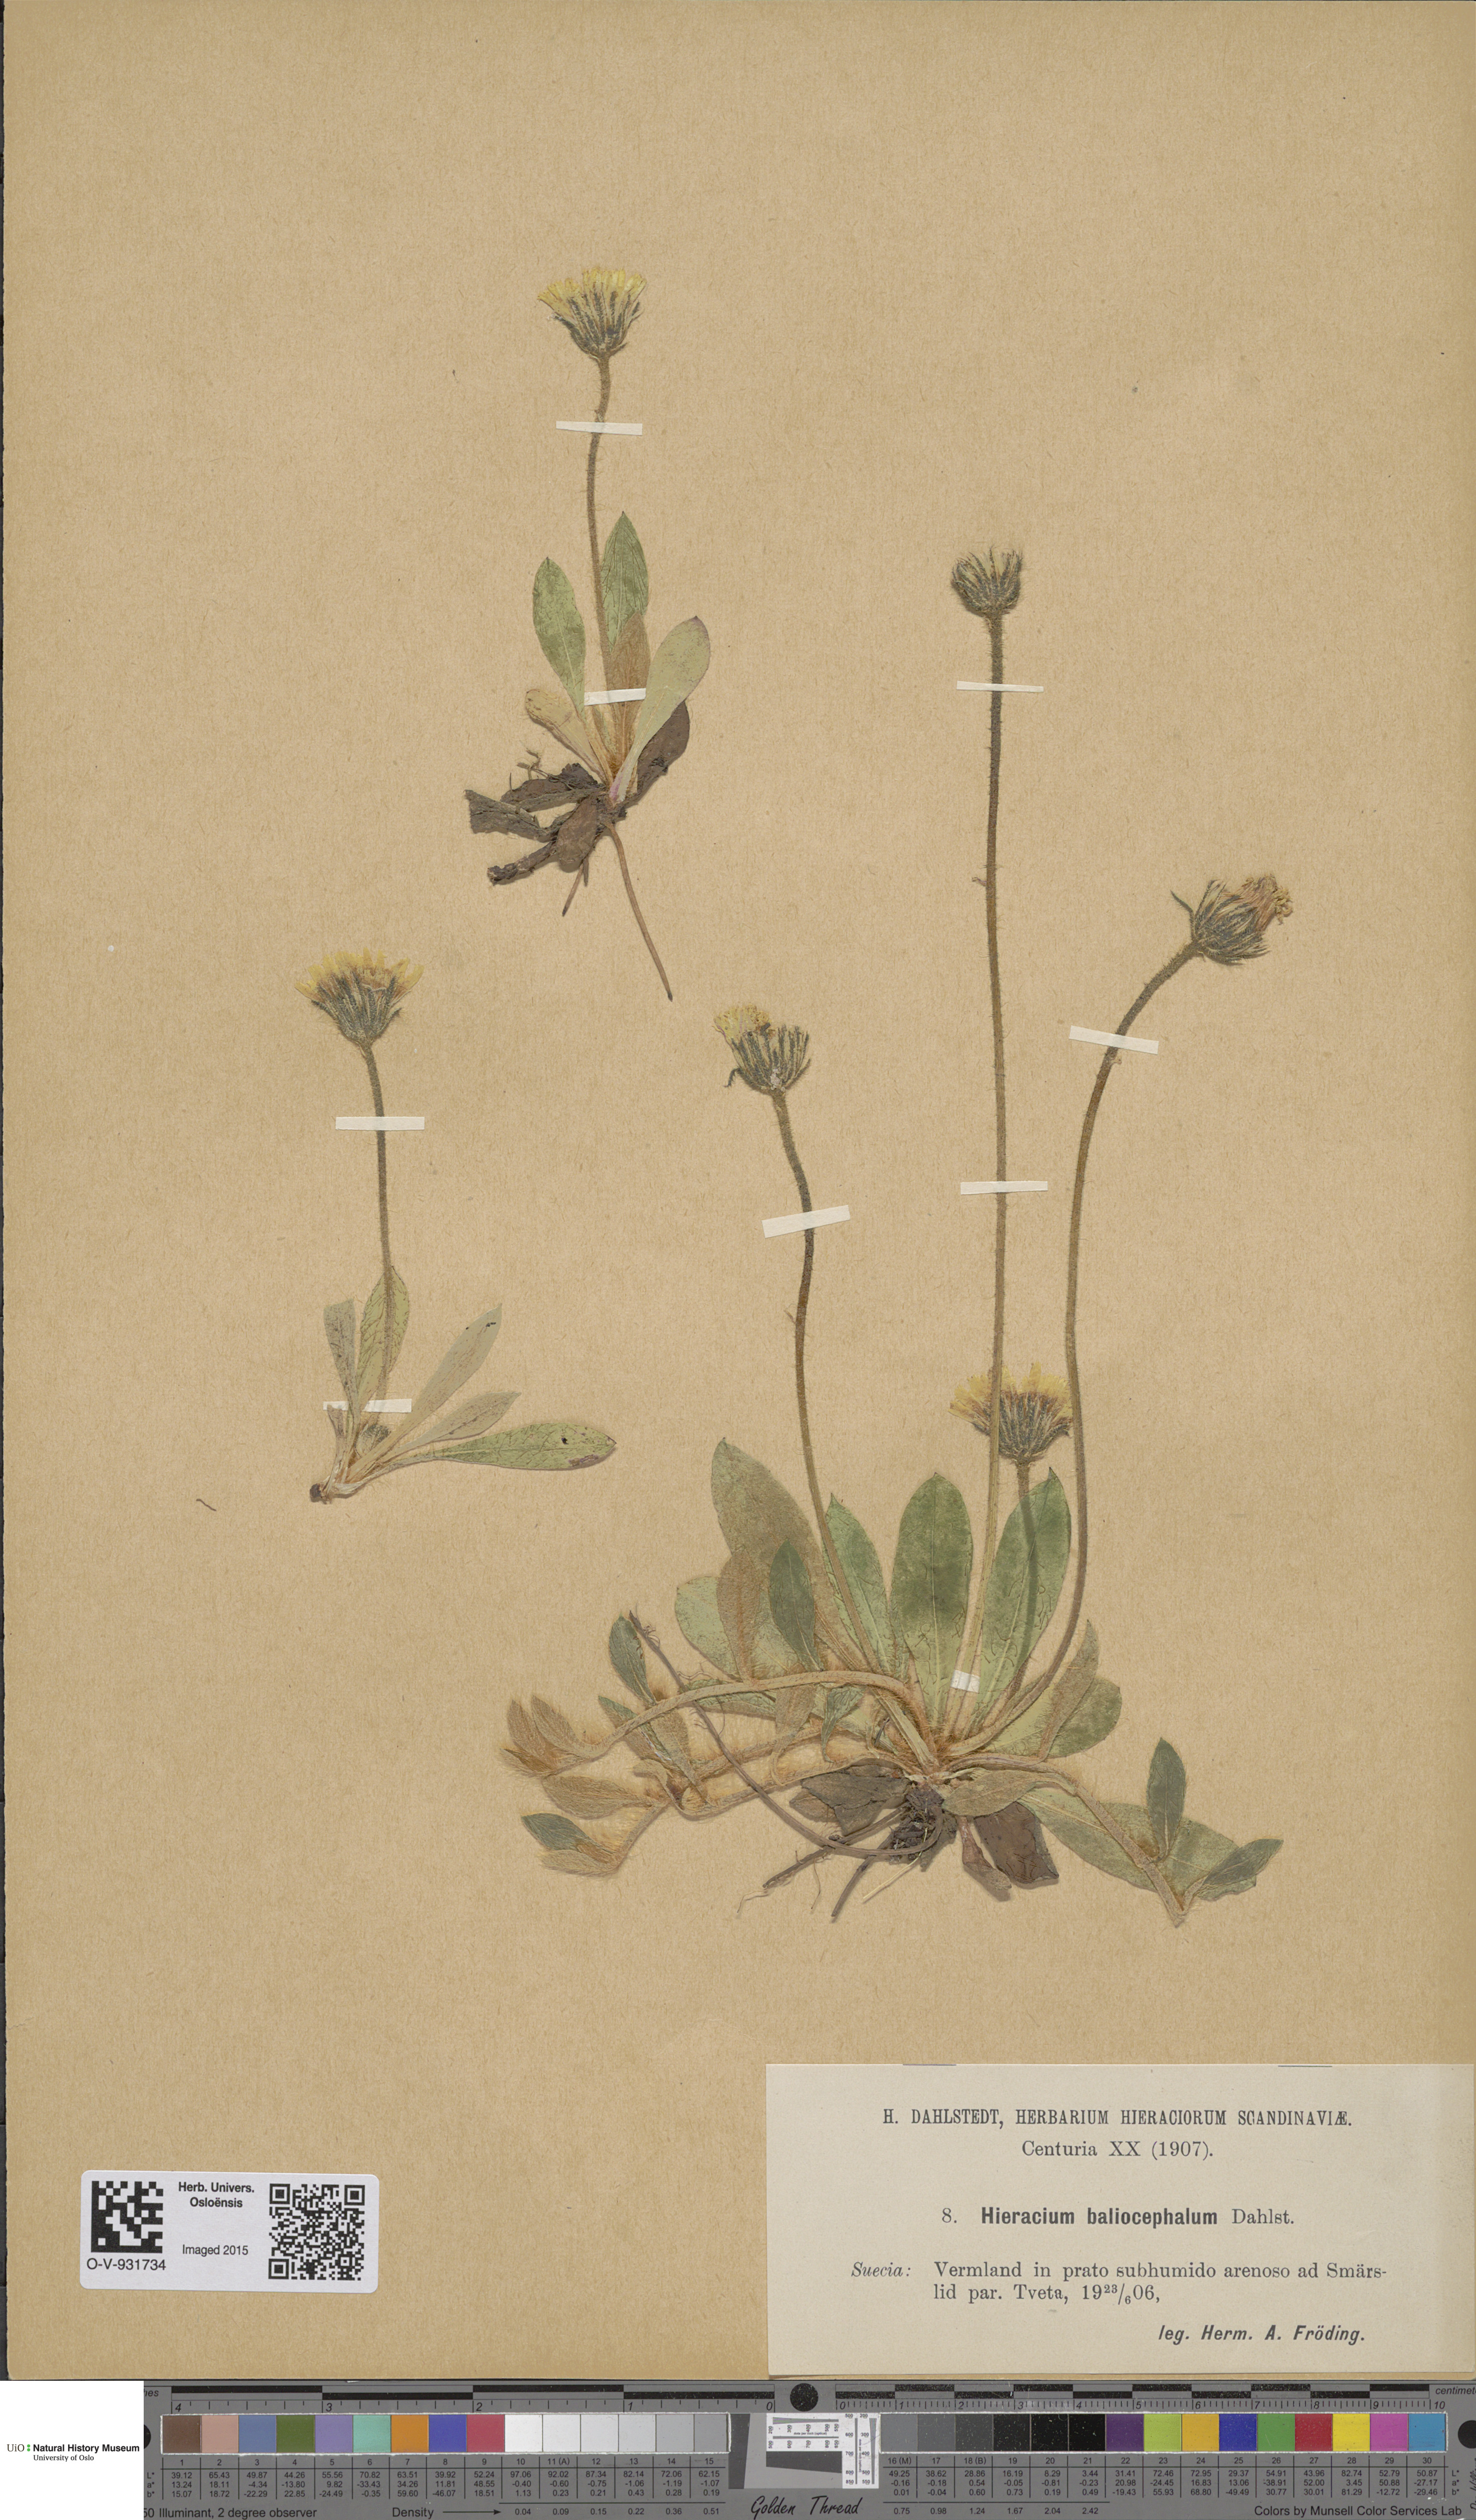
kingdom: Plantae
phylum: Tracheophyta
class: Magnoliopsida
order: Asterales
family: Asteraceae
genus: Hieracium
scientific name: Hieracium
